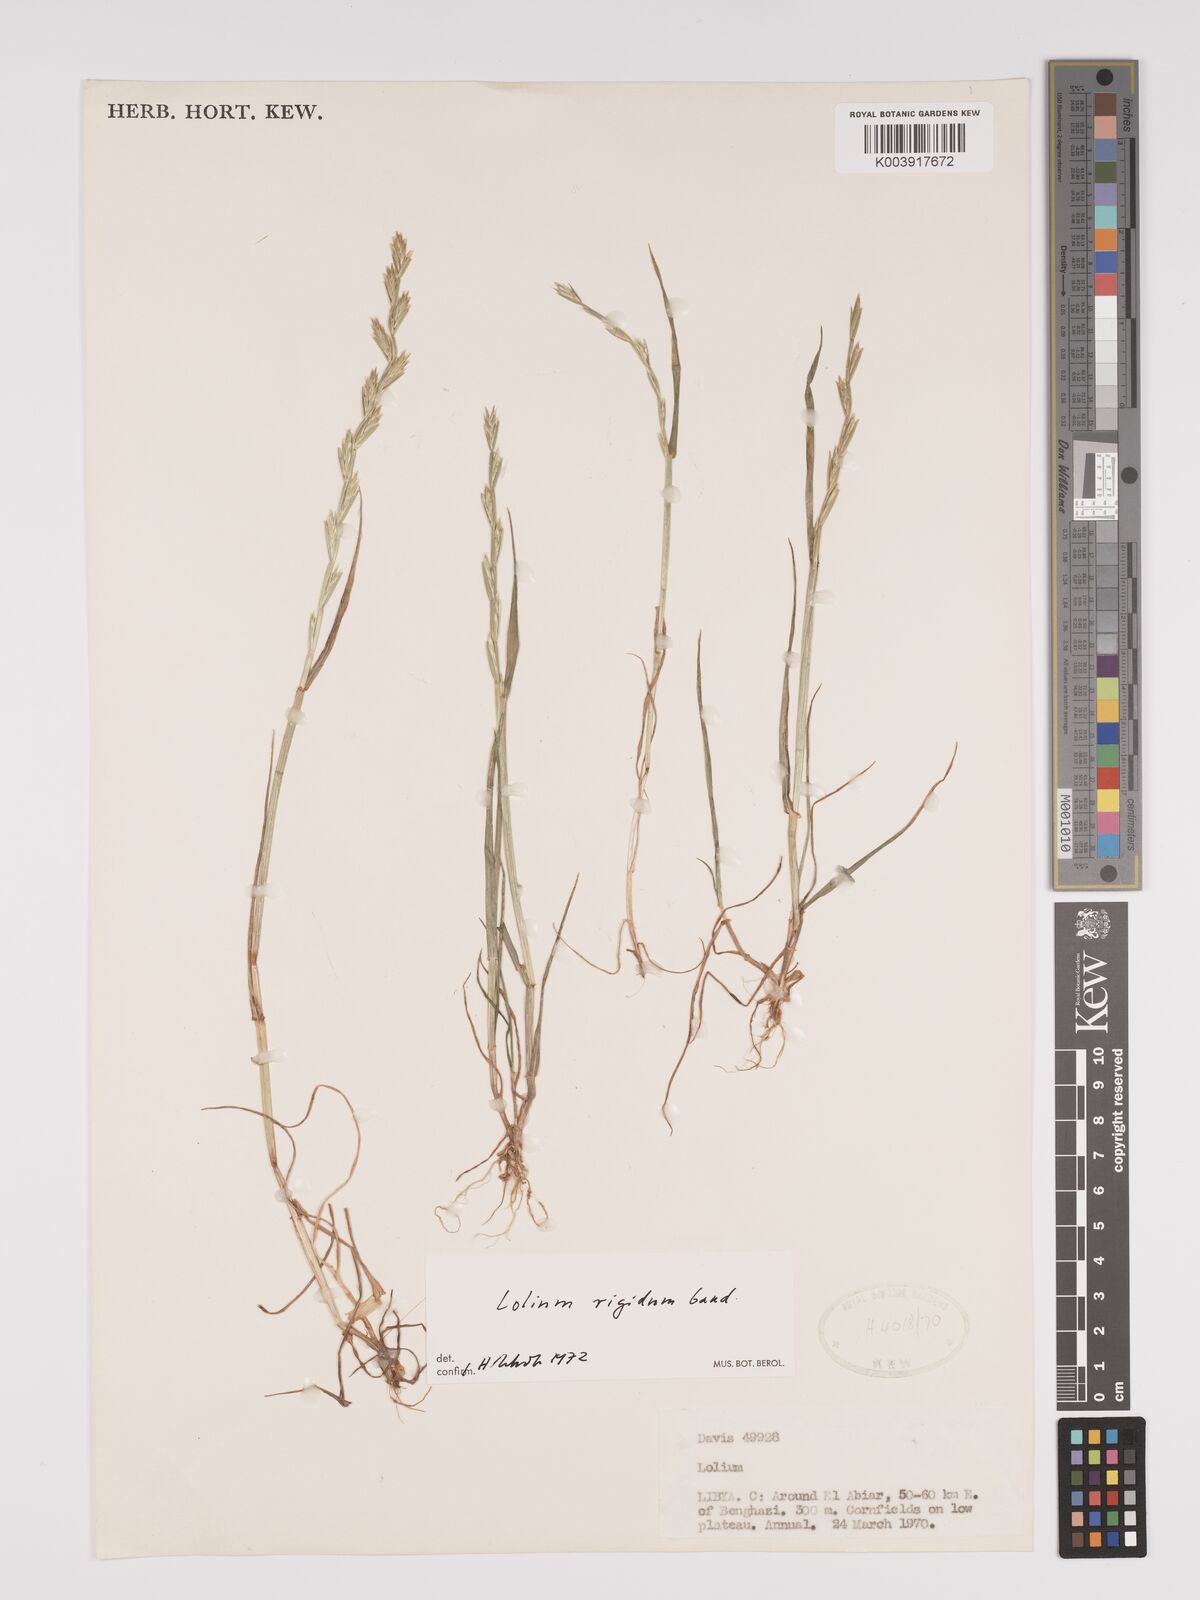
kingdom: Plantae
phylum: Tracheophyta
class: Liliopsida
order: Poales
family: Poaceae
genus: Lolium
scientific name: Lolium rigidum
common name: Wimmera ryegrass
